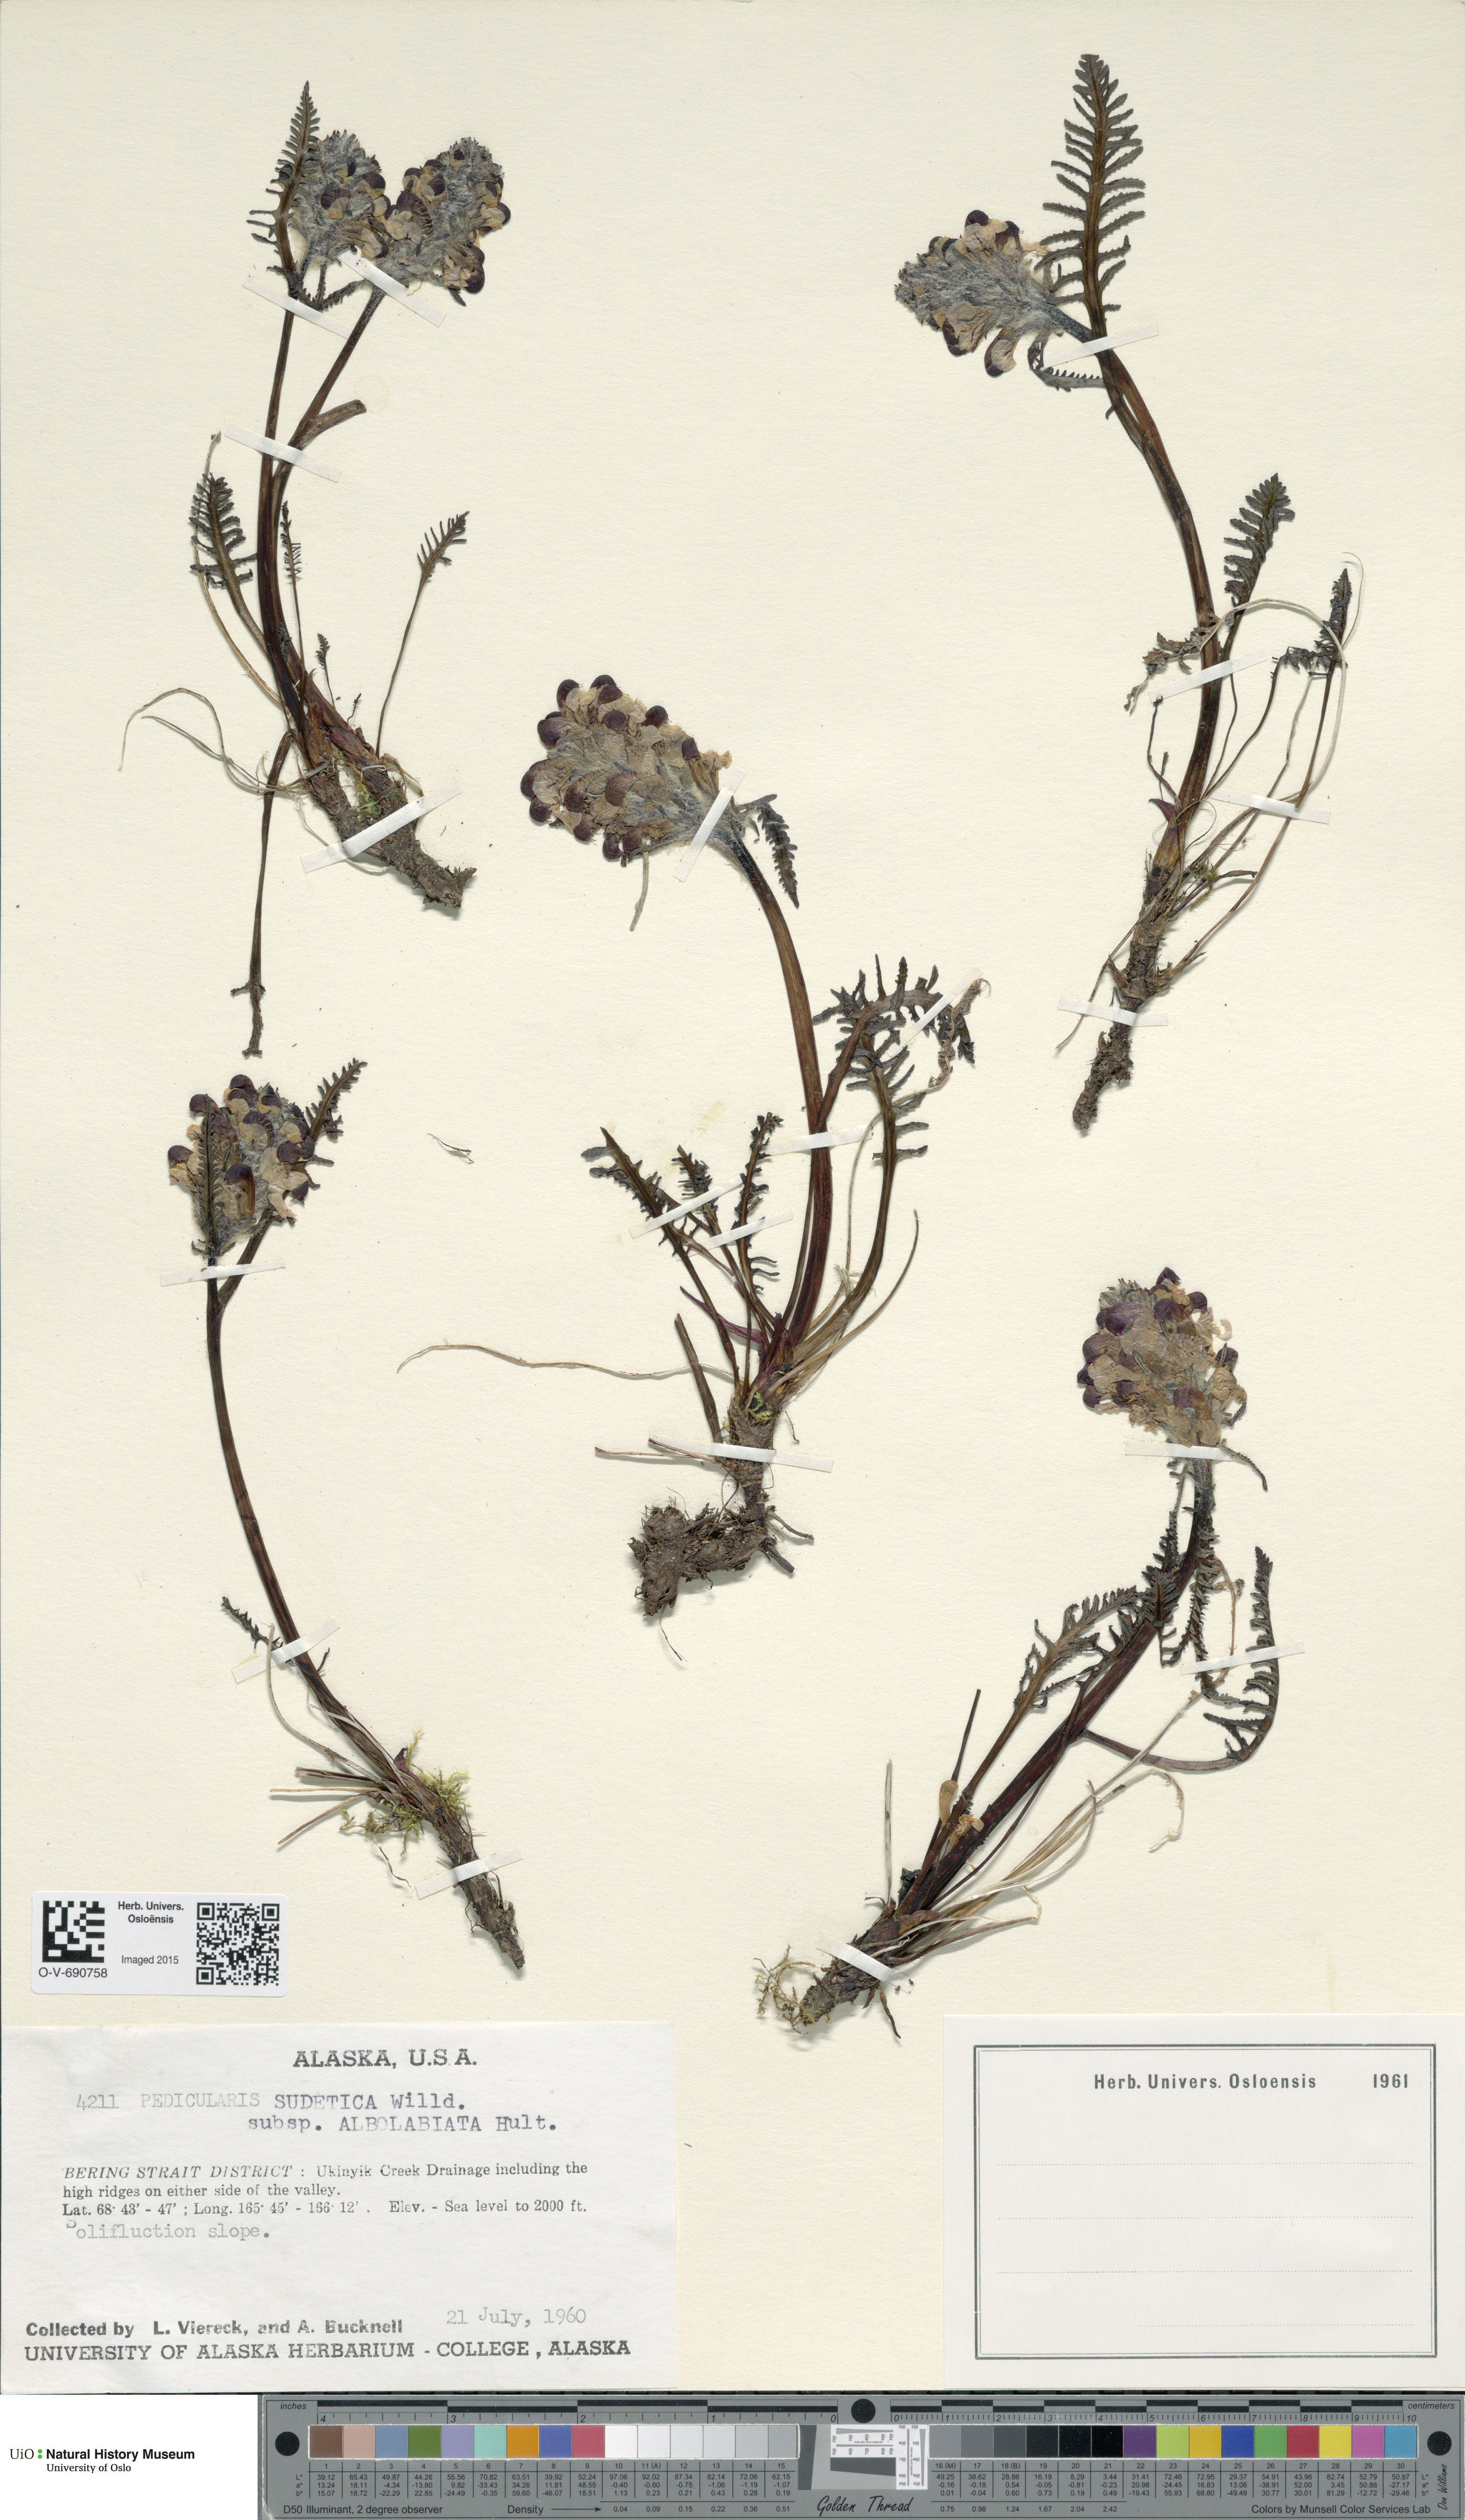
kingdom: Plantae
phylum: Tracheophyta
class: Magnoliopsida
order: Lamiales
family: Orobanchaceae
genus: Pedicularis
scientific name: Pedicularis novaiae-zemliae
